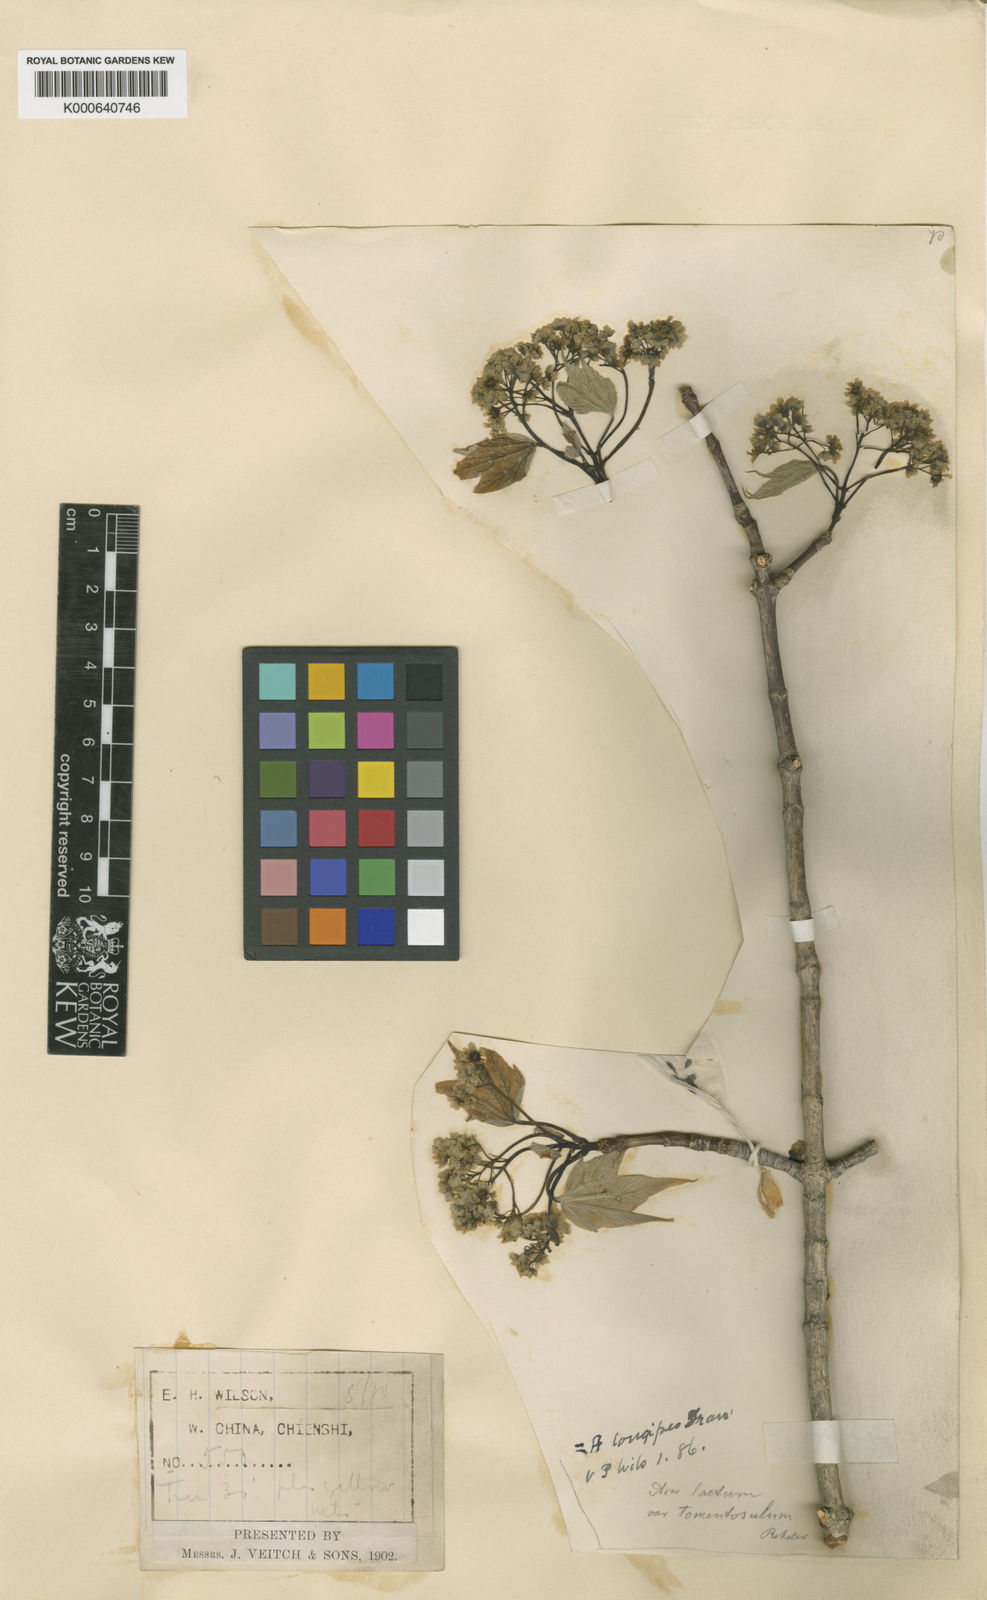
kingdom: Plantae
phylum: Tracheophyta
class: Magnoliopsida
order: Sapindales
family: Sapindaceae
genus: Acer
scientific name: Acer longipes
